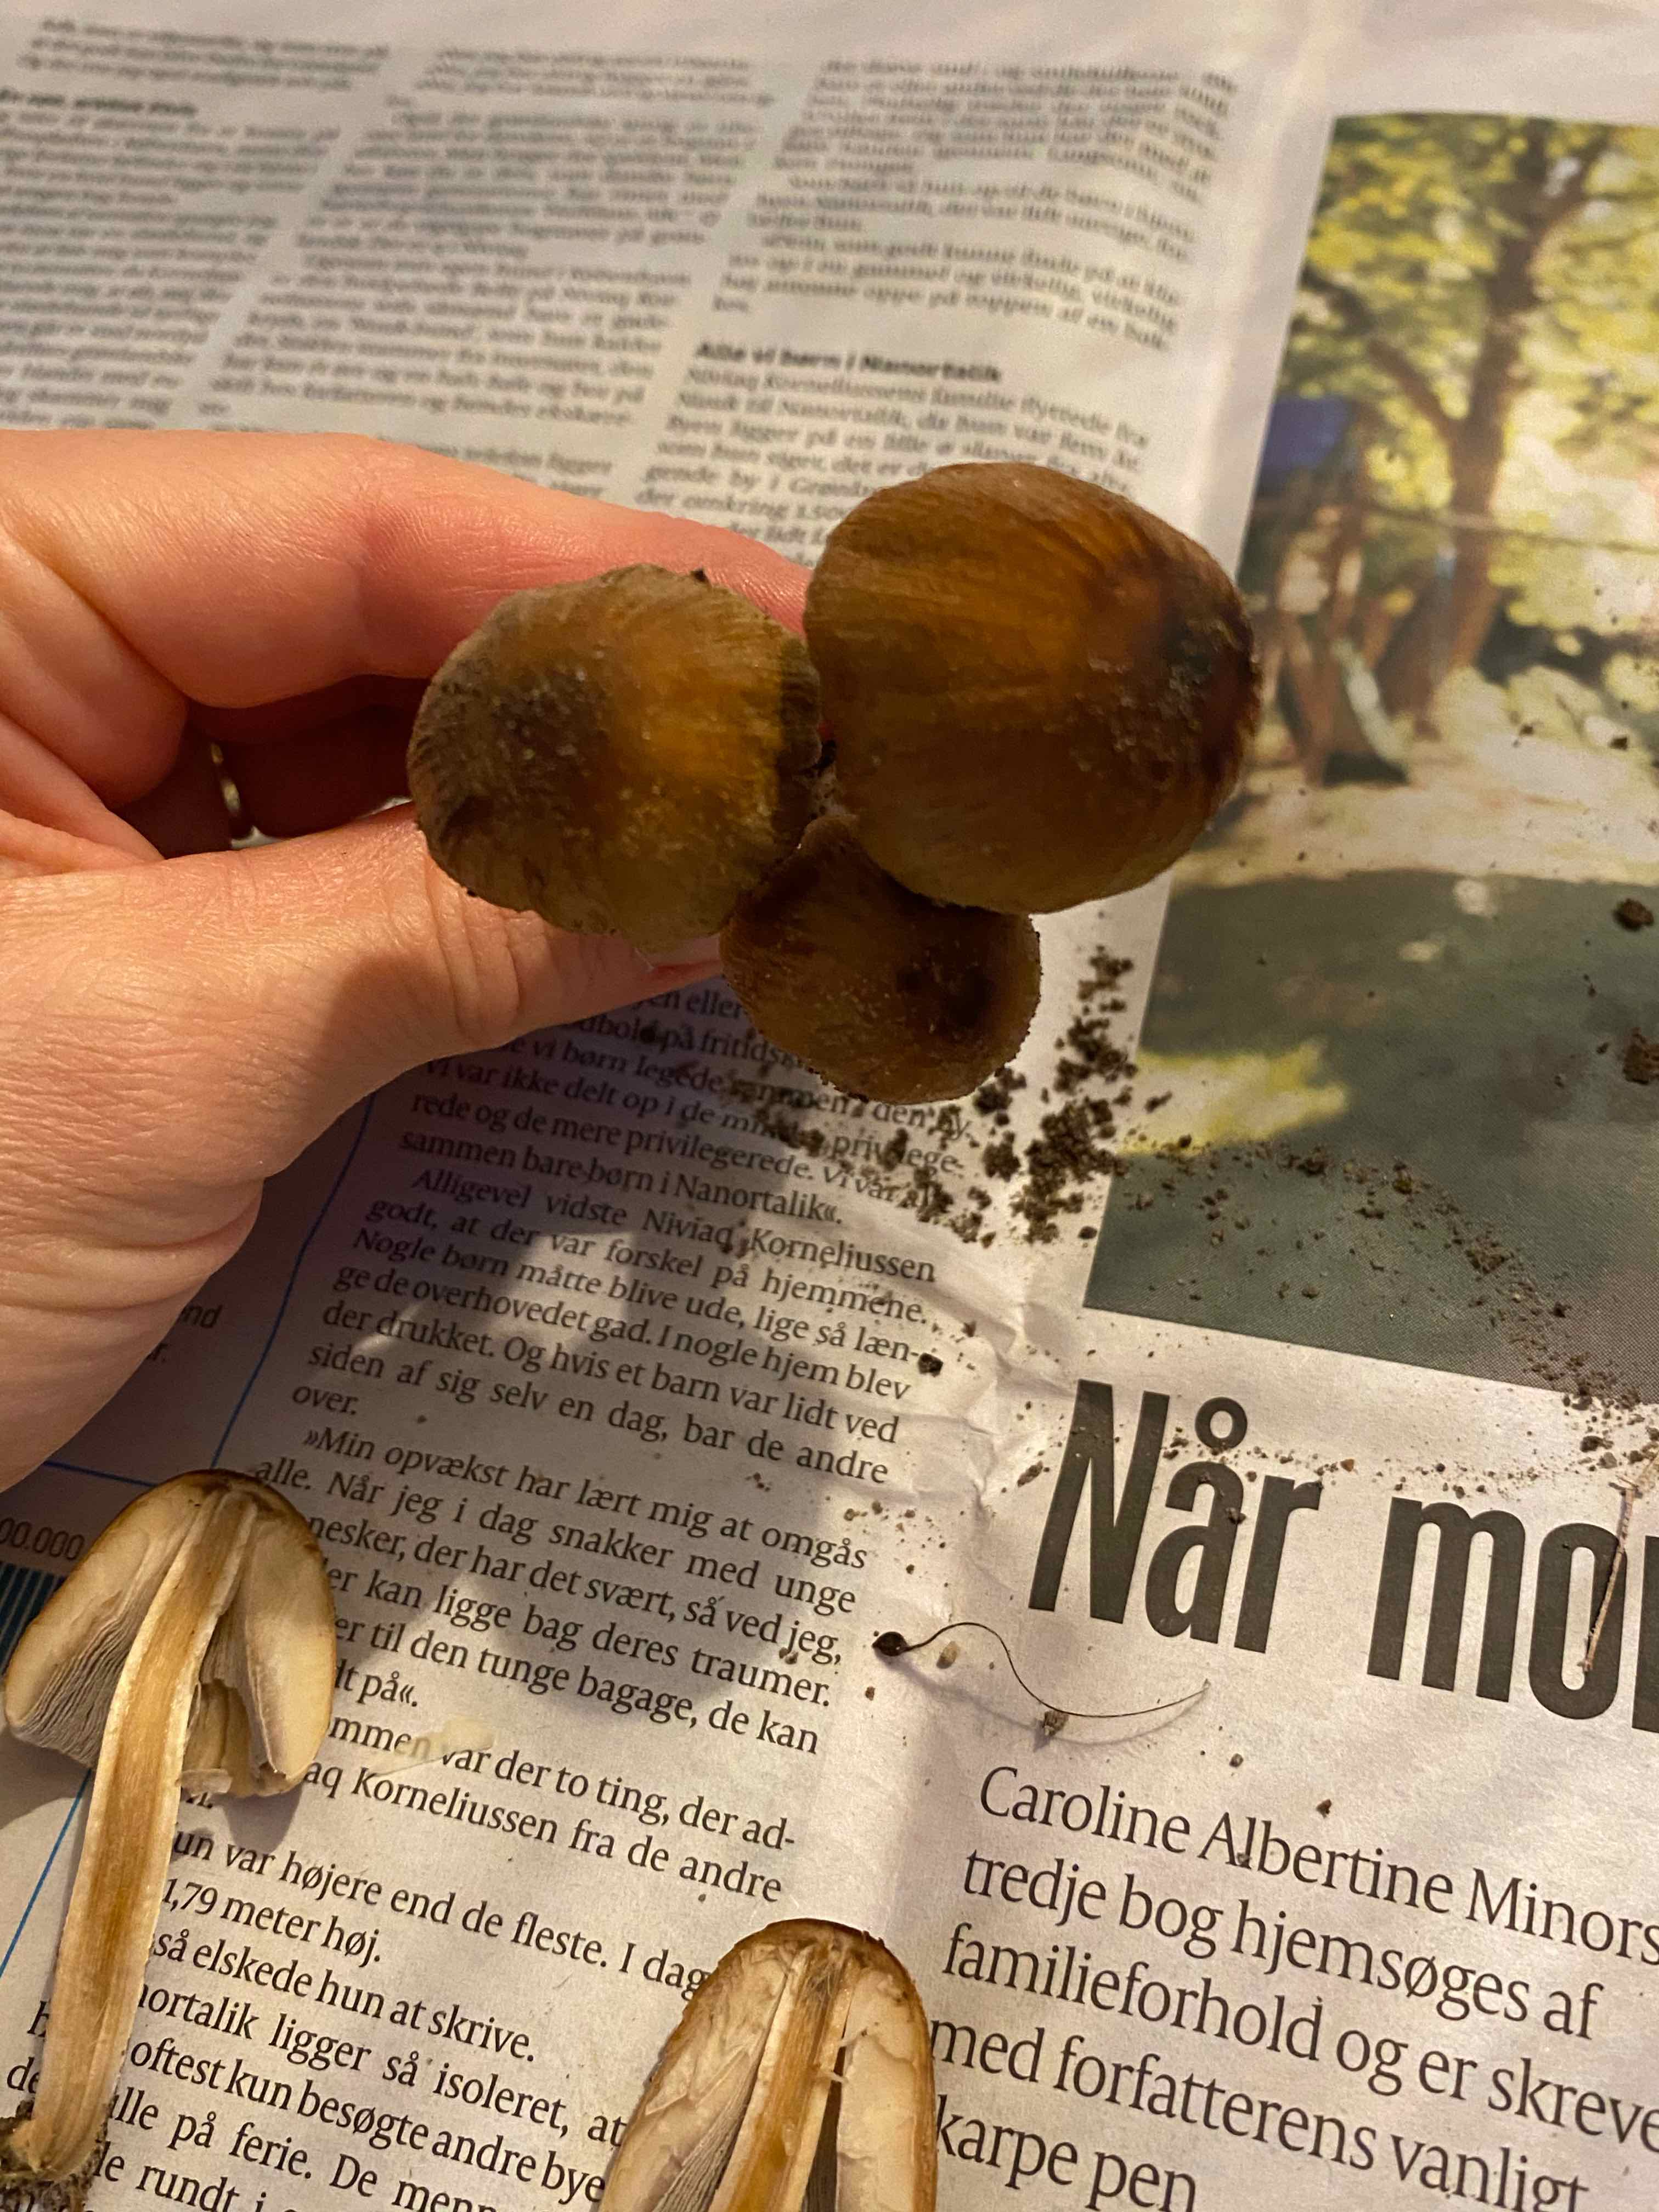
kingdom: Fungi
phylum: Basidiomycota
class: Agaricomycetes
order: Agaricales
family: Psathyrellaceae
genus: Coprinellus
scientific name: Coprinellus micaceus
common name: glimmer-blækhat
